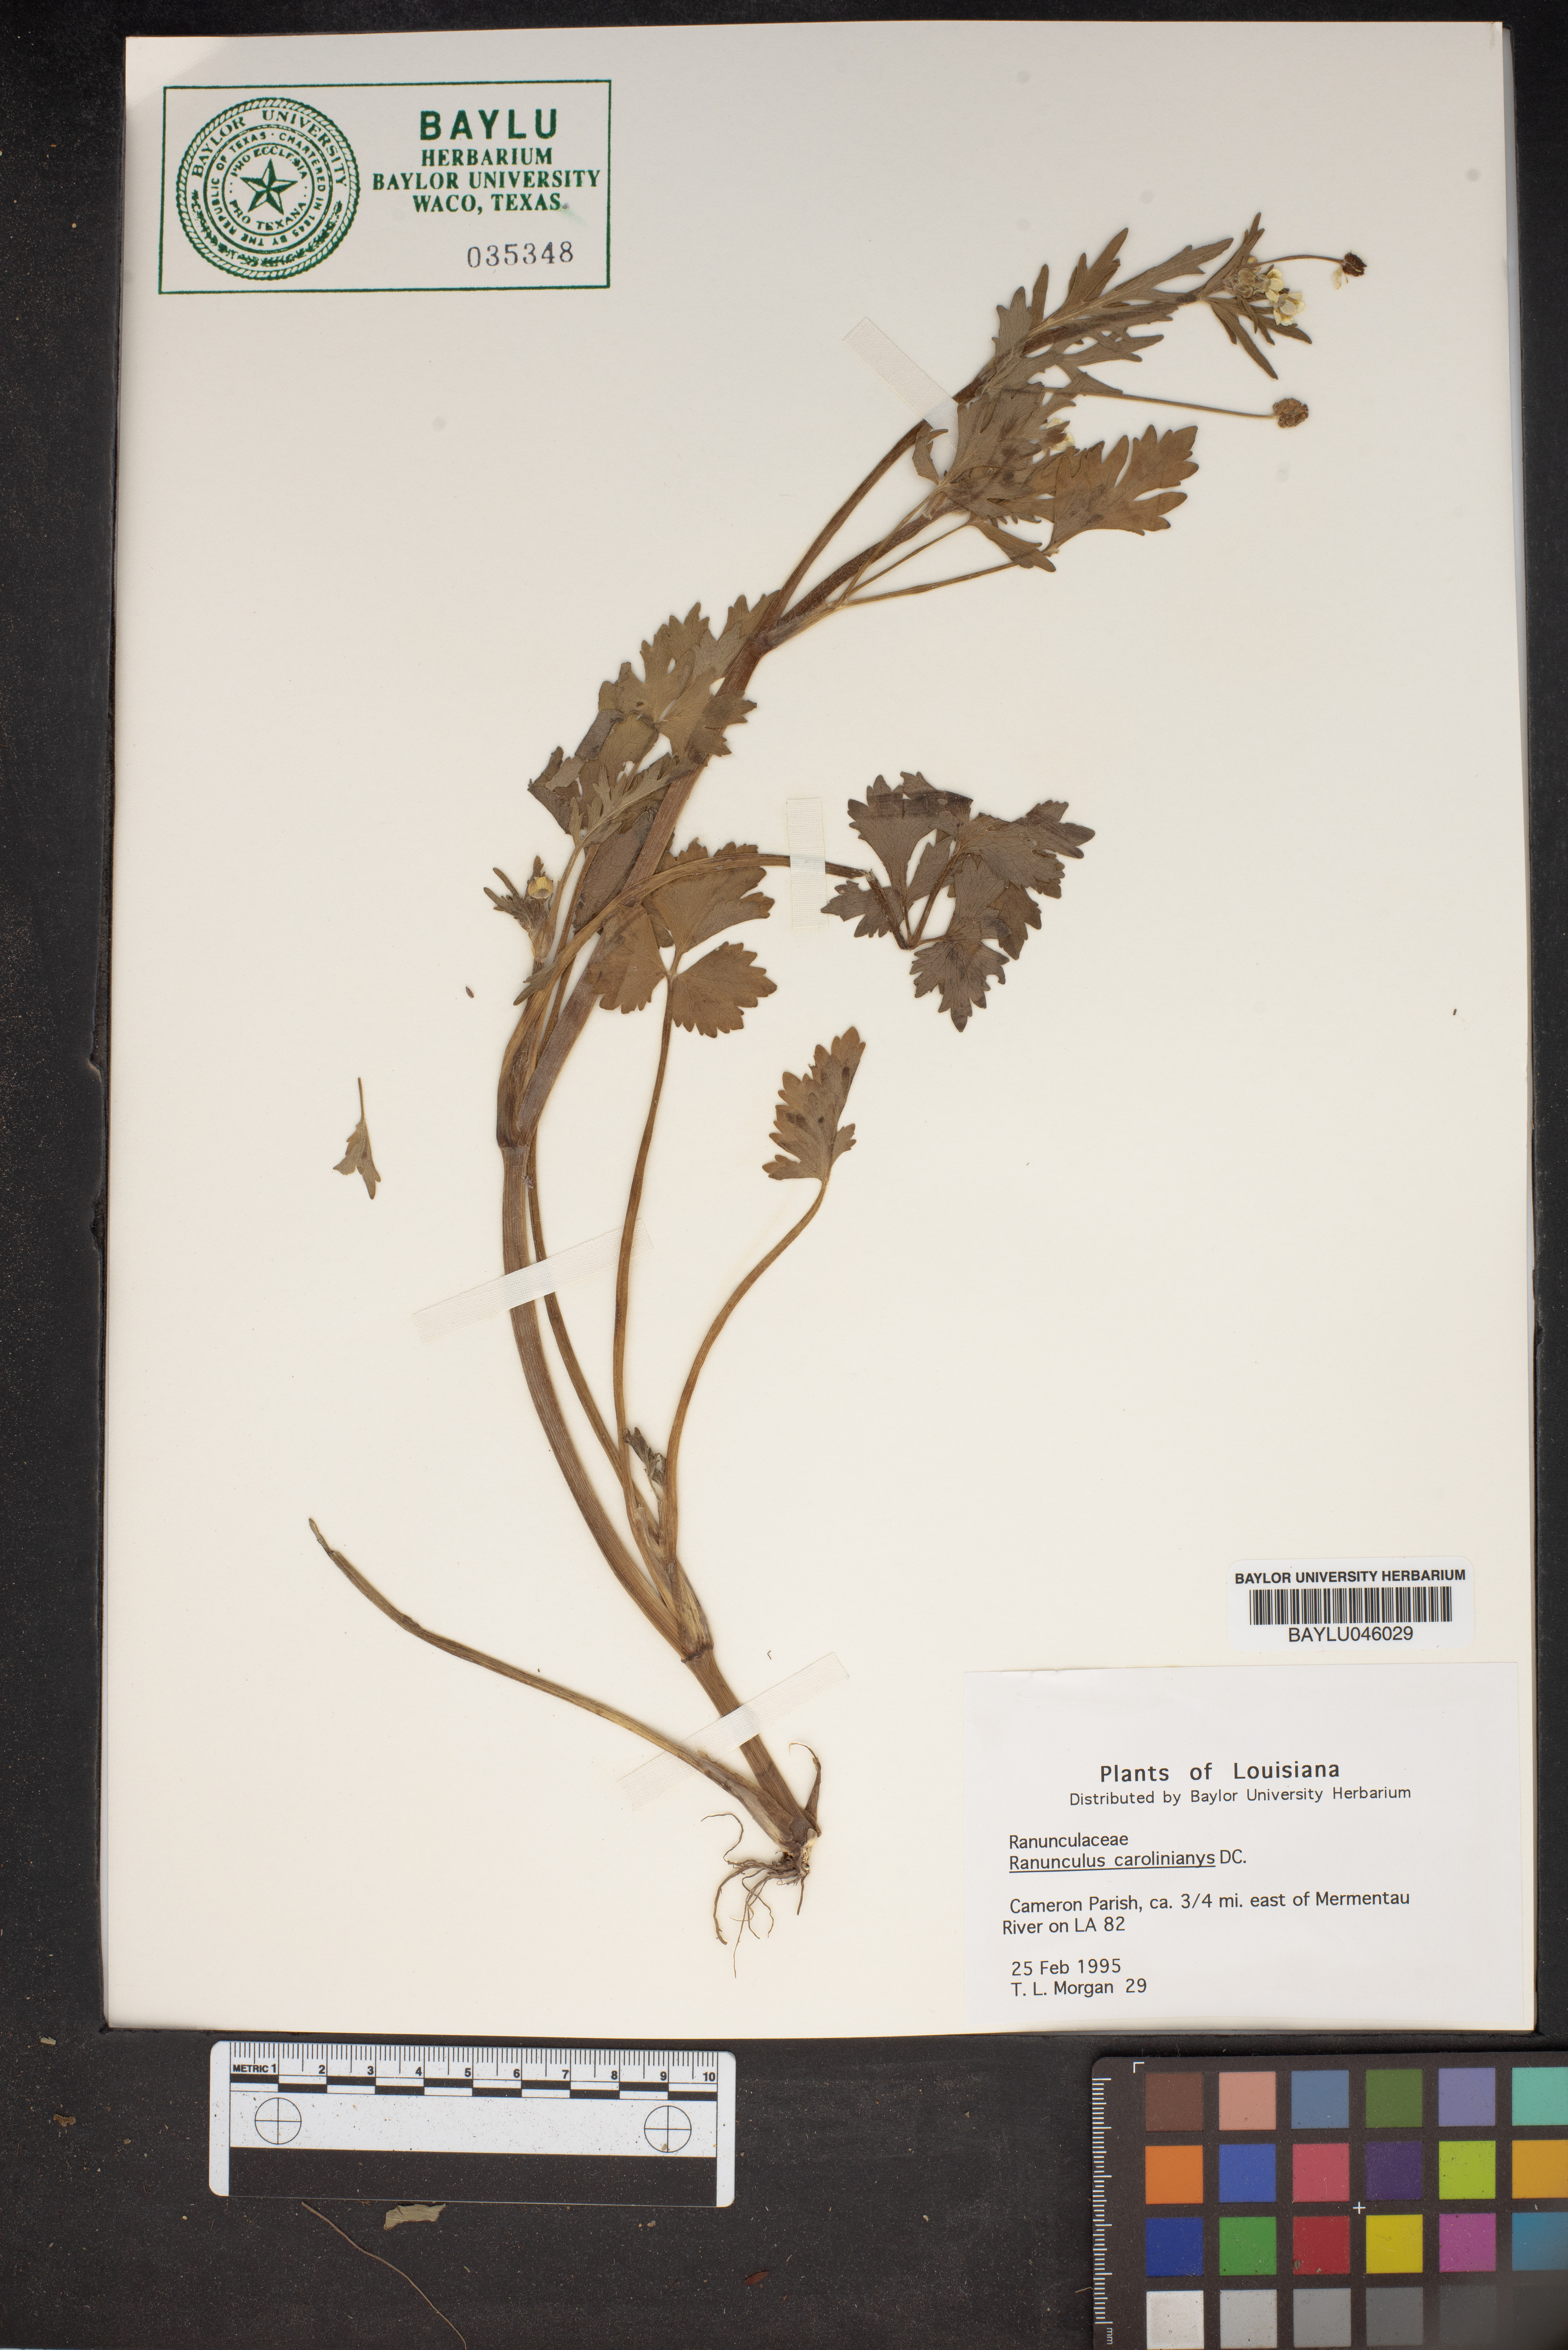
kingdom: Plantae
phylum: Tracheophyta
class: Magnoliopsida
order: Ranunculales
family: Ranunculaceae
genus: Ranunculus
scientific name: Ranunculus hispidus
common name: Bristly buttercup
